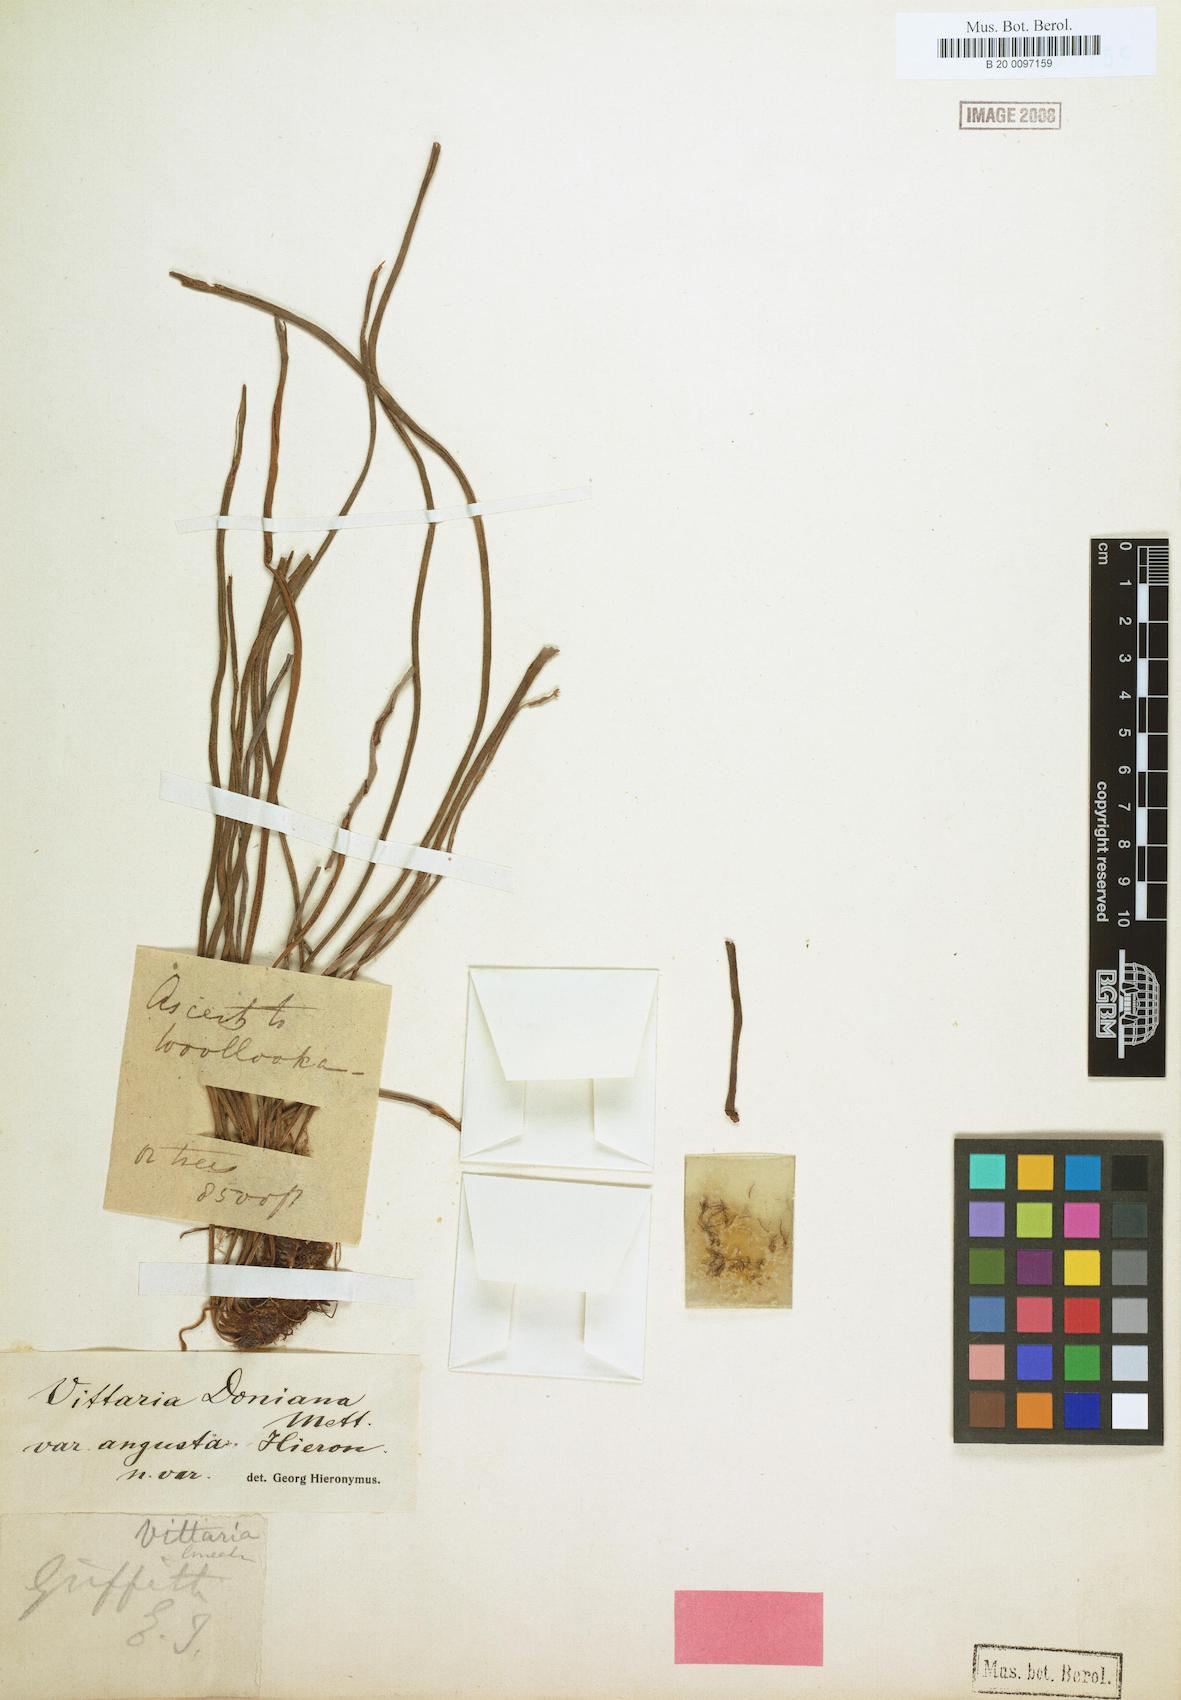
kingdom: Plantae
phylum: Tracheophyta
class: Polypodiopsida
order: Polypodiales
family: Pteridaceae
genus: Haplopteris
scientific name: Haplopteris linearifolia
